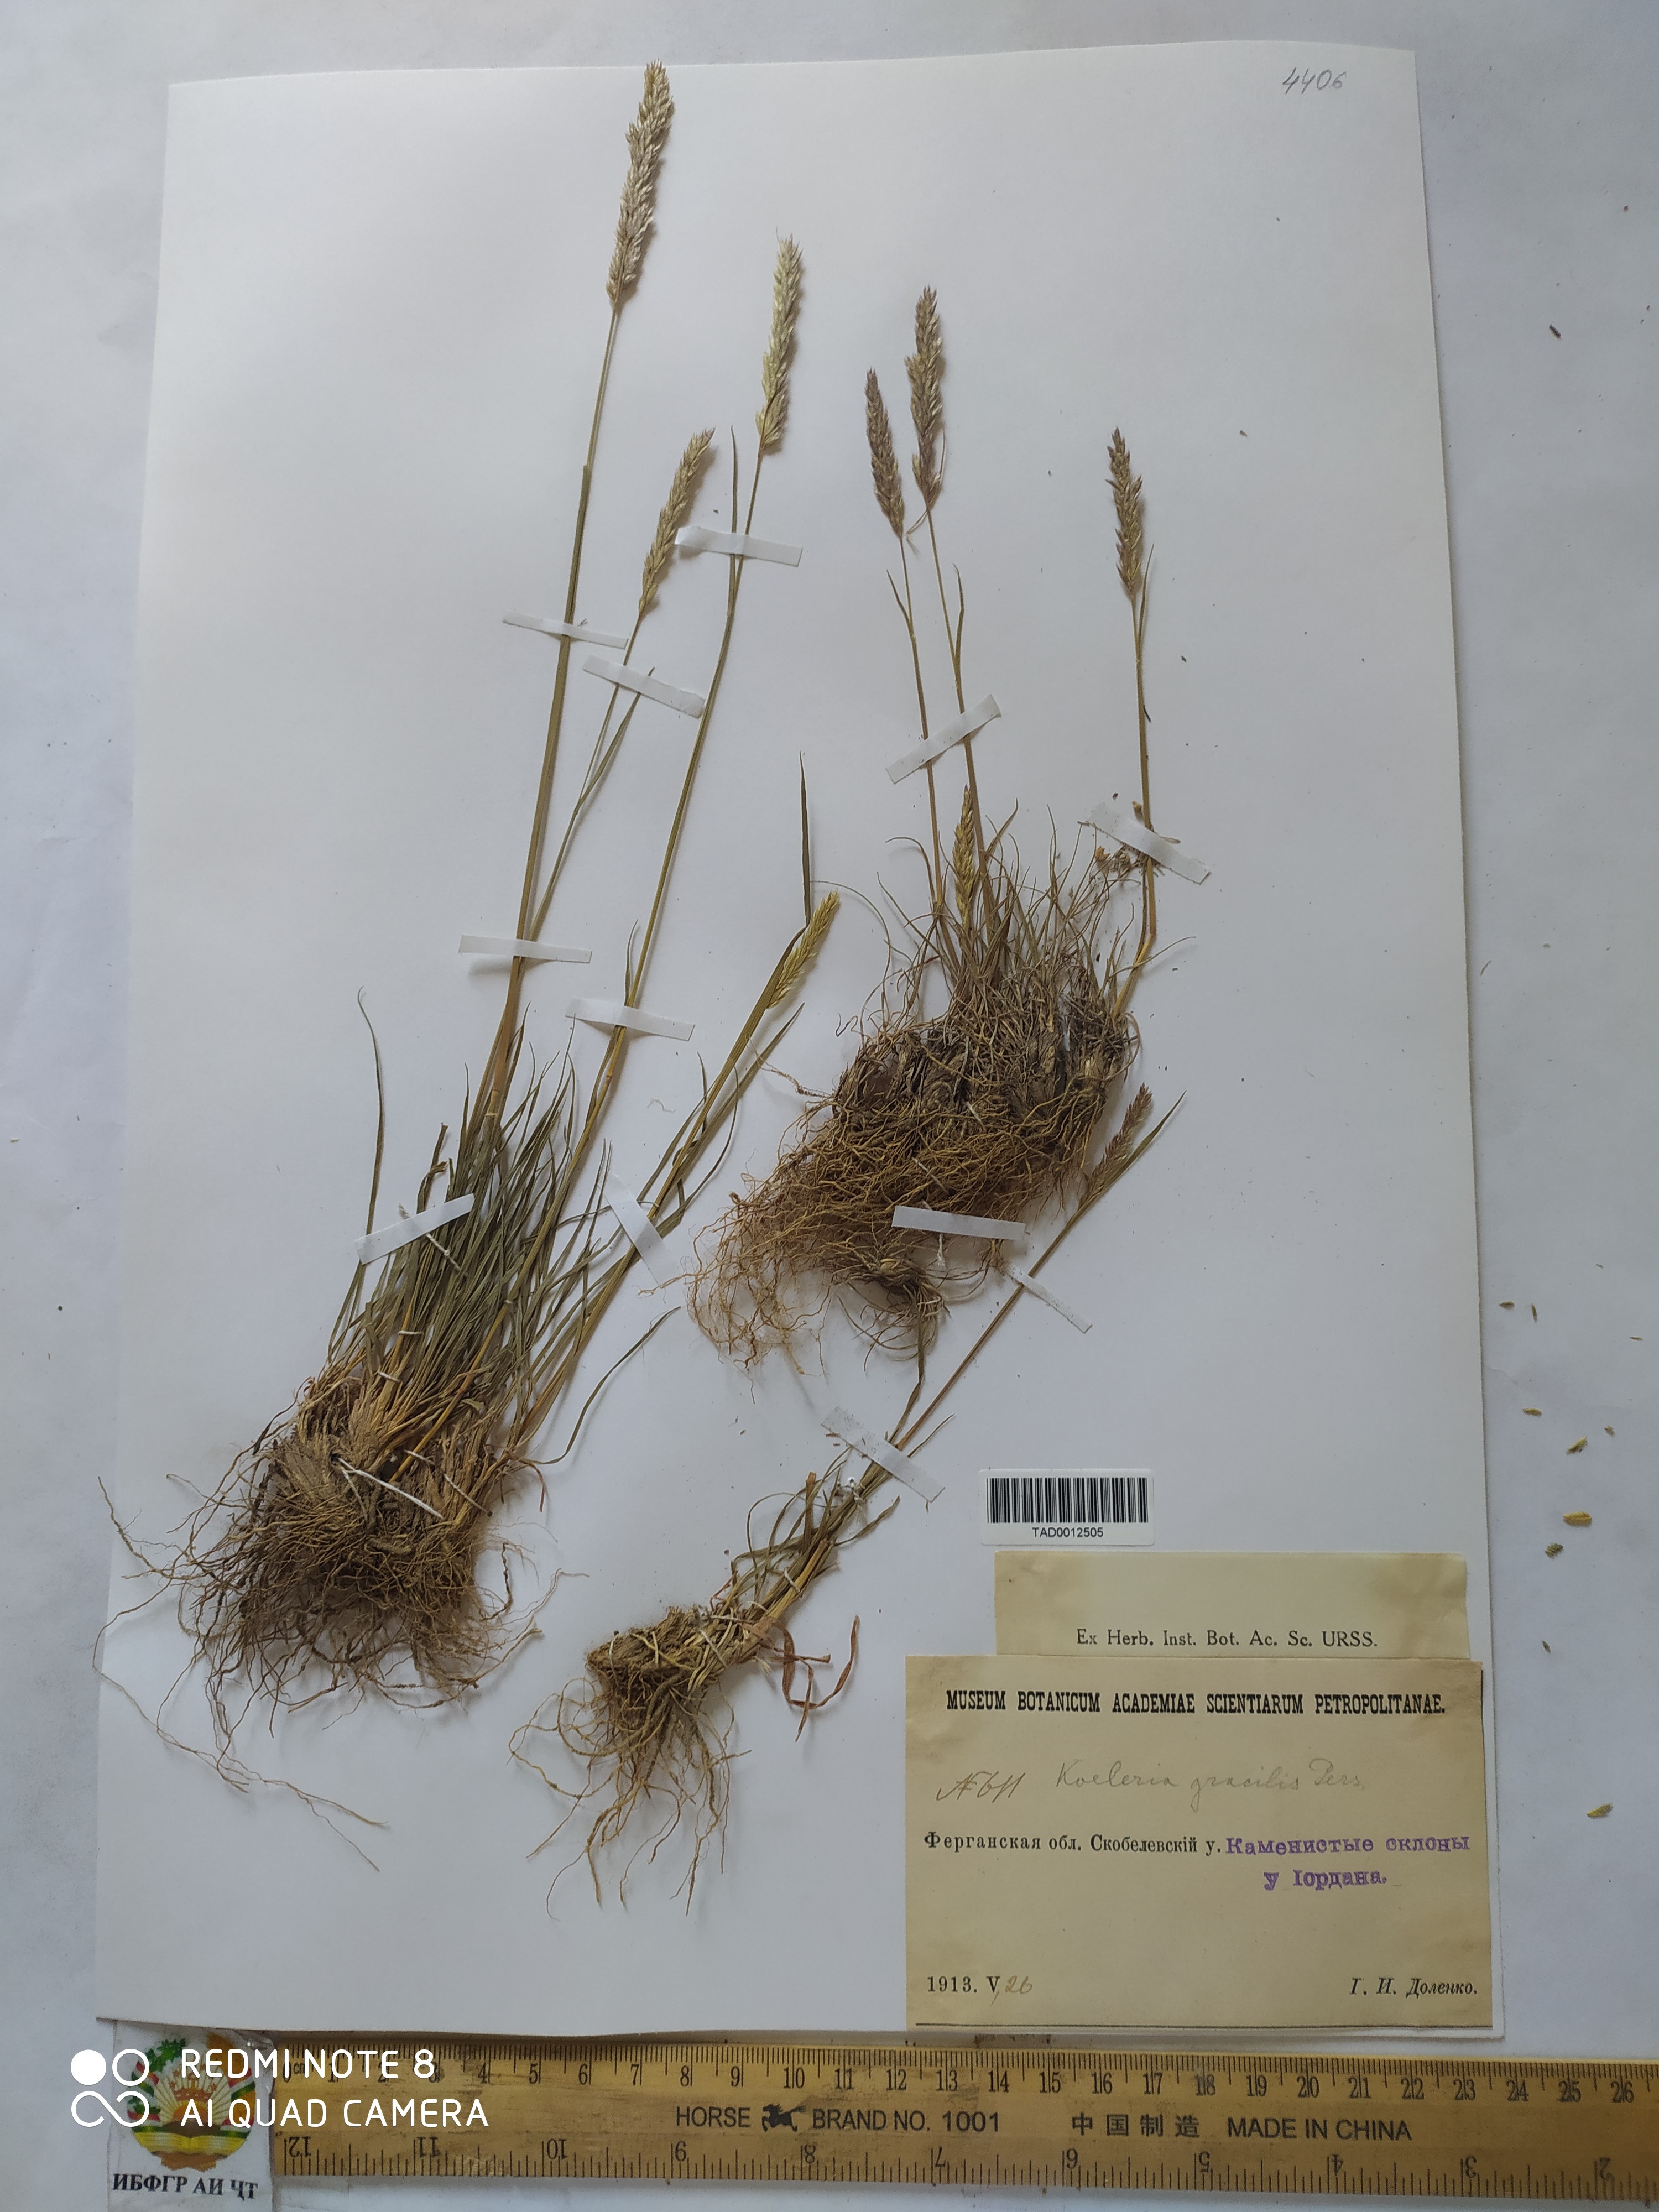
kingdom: Plantae
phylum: Tracheophyta
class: Liliopsida
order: Poales
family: Poaceae
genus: Koeleria
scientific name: Koeleria macrantha
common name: Crested hair-grass
